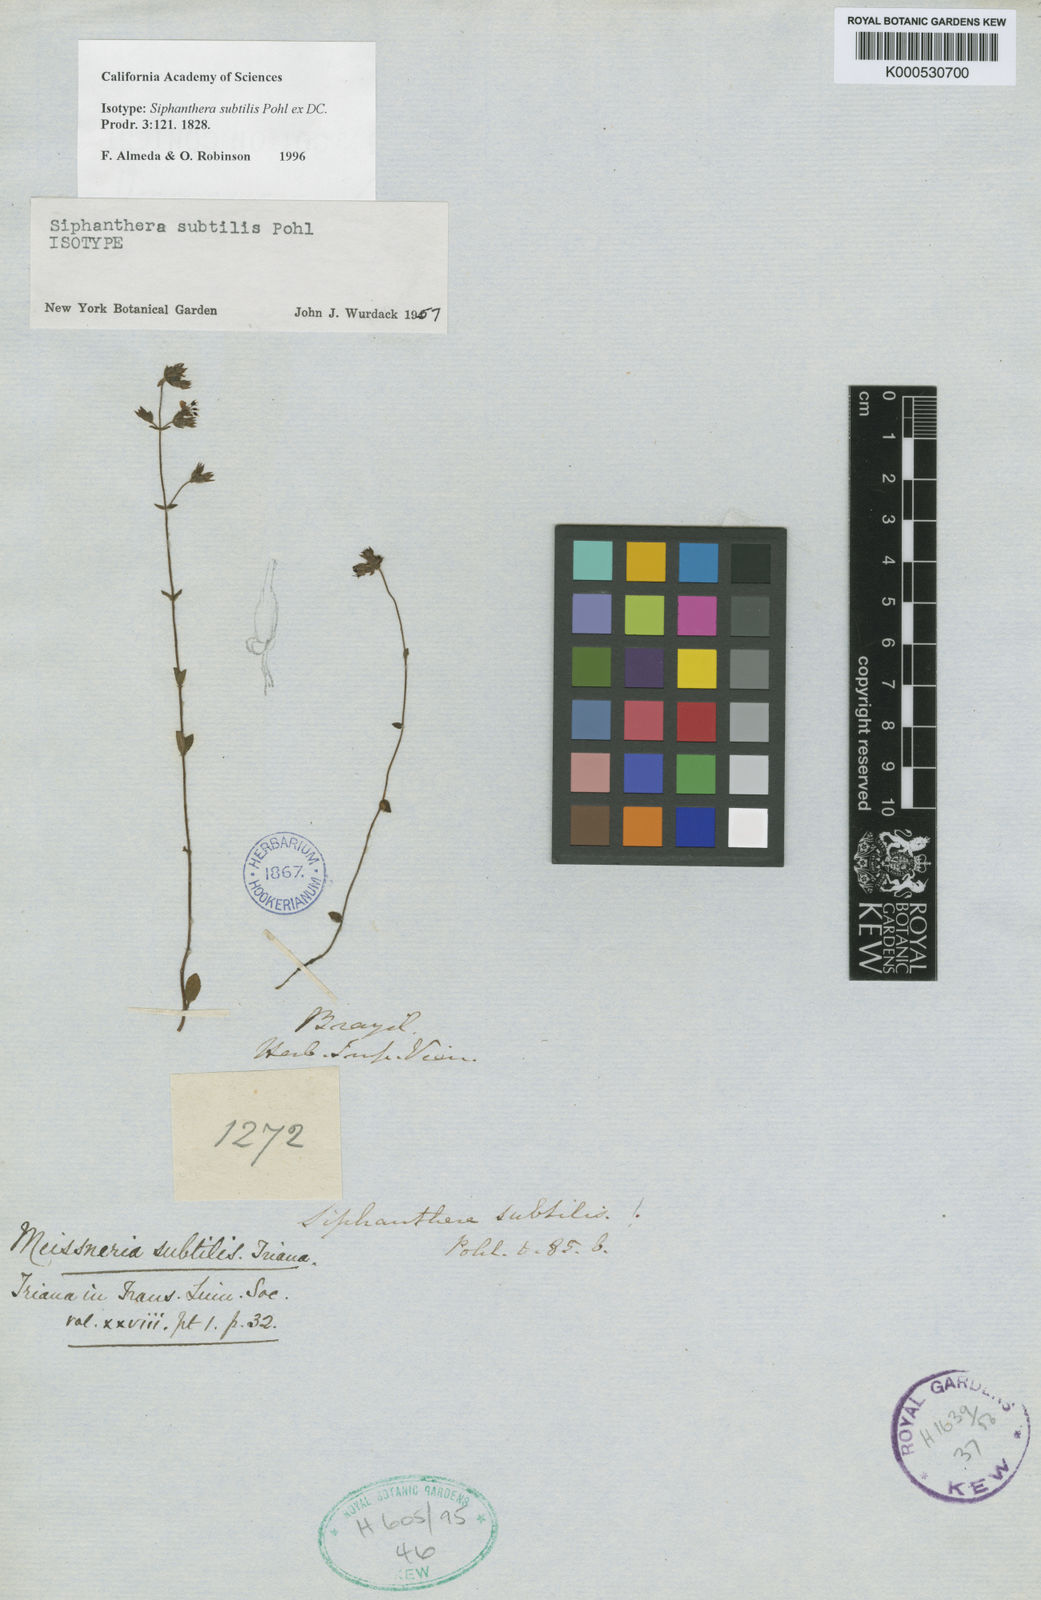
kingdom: Plantae
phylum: Tracheophyta
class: Magnoliopsida
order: Myrtales
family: Melastomataceae
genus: Siphanthera
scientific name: Siphanthera
